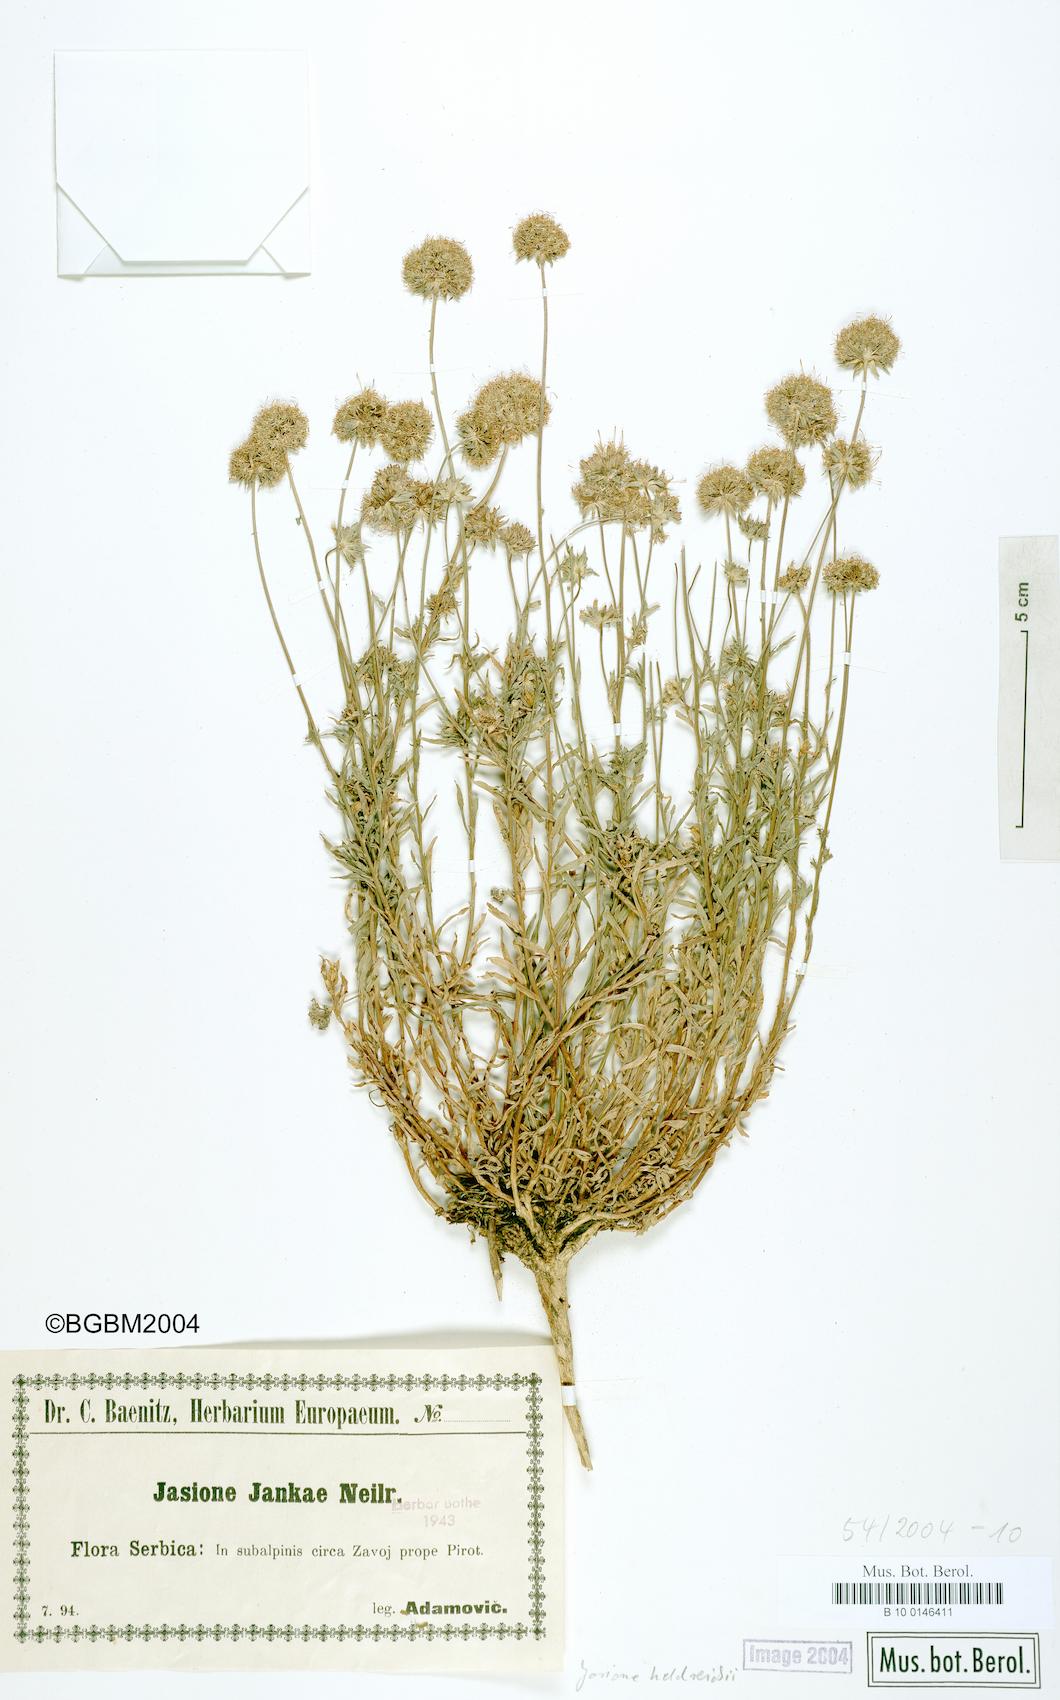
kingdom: Plantae
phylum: Tracheophyta
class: Magnoliopsida
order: Asterales
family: Campanulaceae
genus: Jasione
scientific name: Jasione heldreichii
